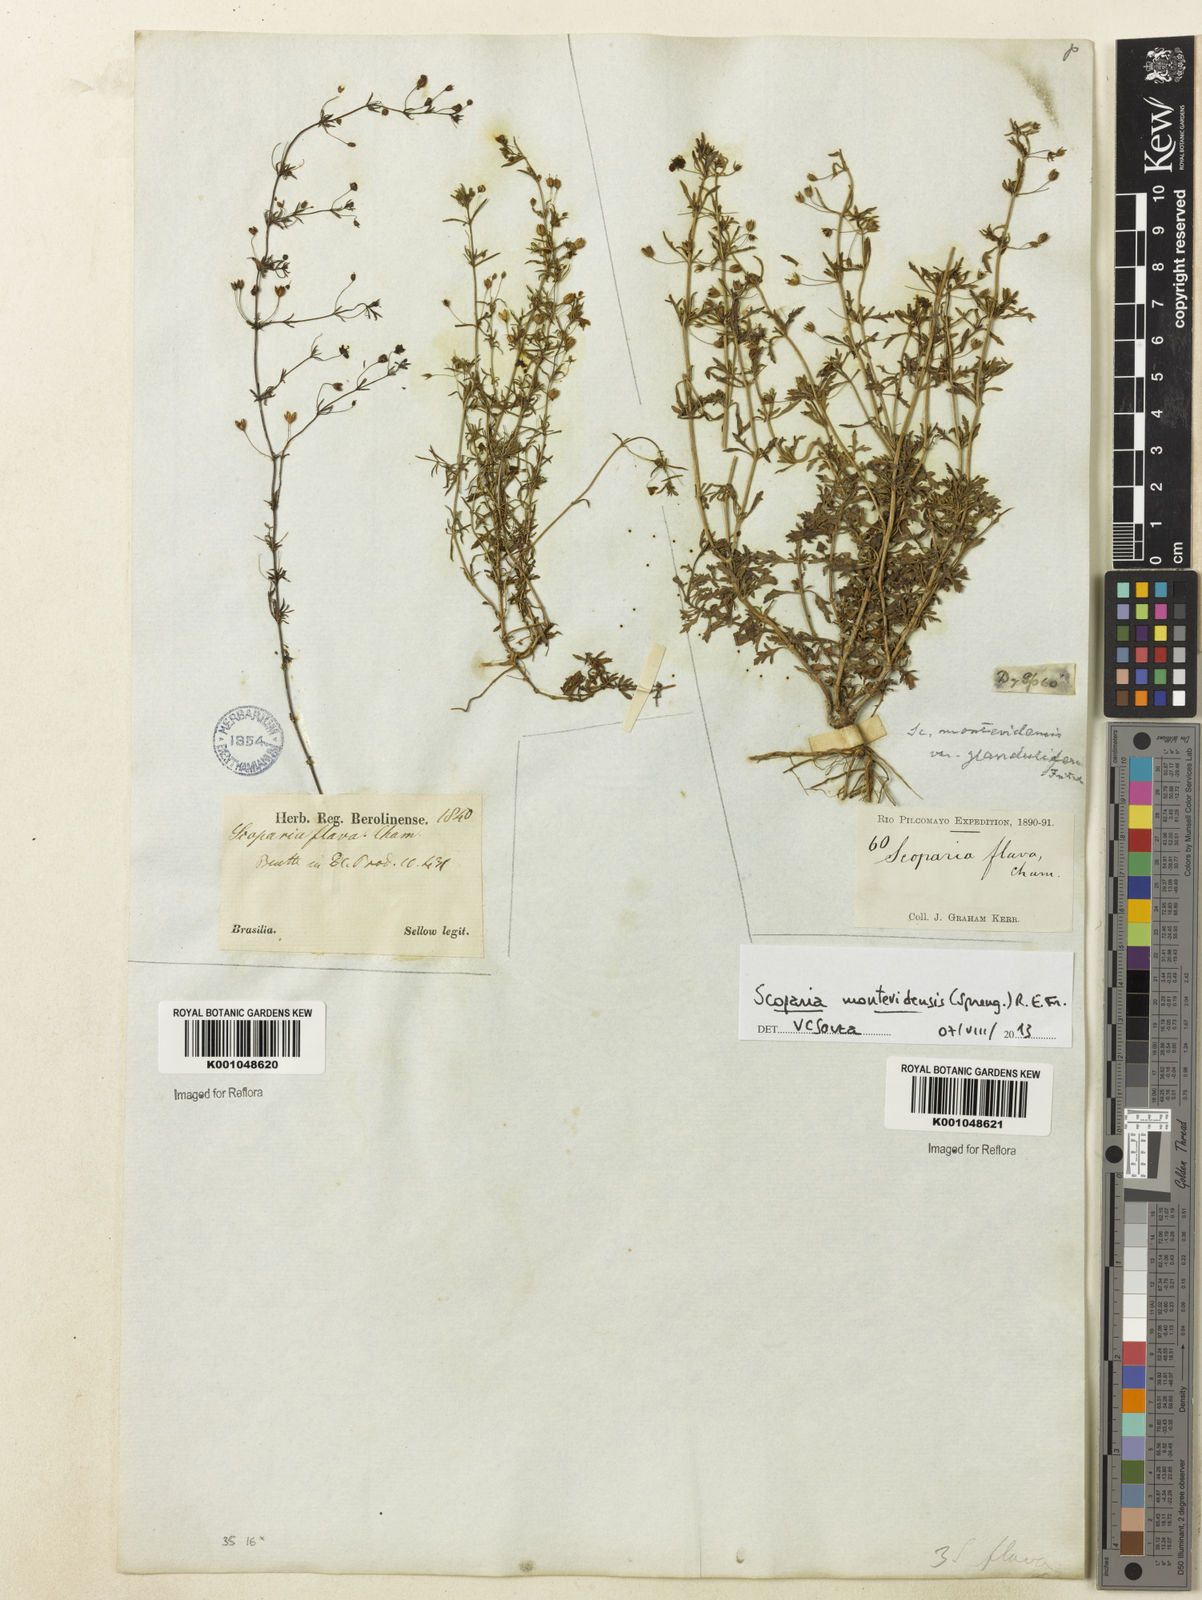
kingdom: Plantae
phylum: Tracheophyta
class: Magnoliopsida
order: Lamiales
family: Plantaginaceae
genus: Scoparia
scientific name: Scoparia montevidensis
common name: Broomwort
